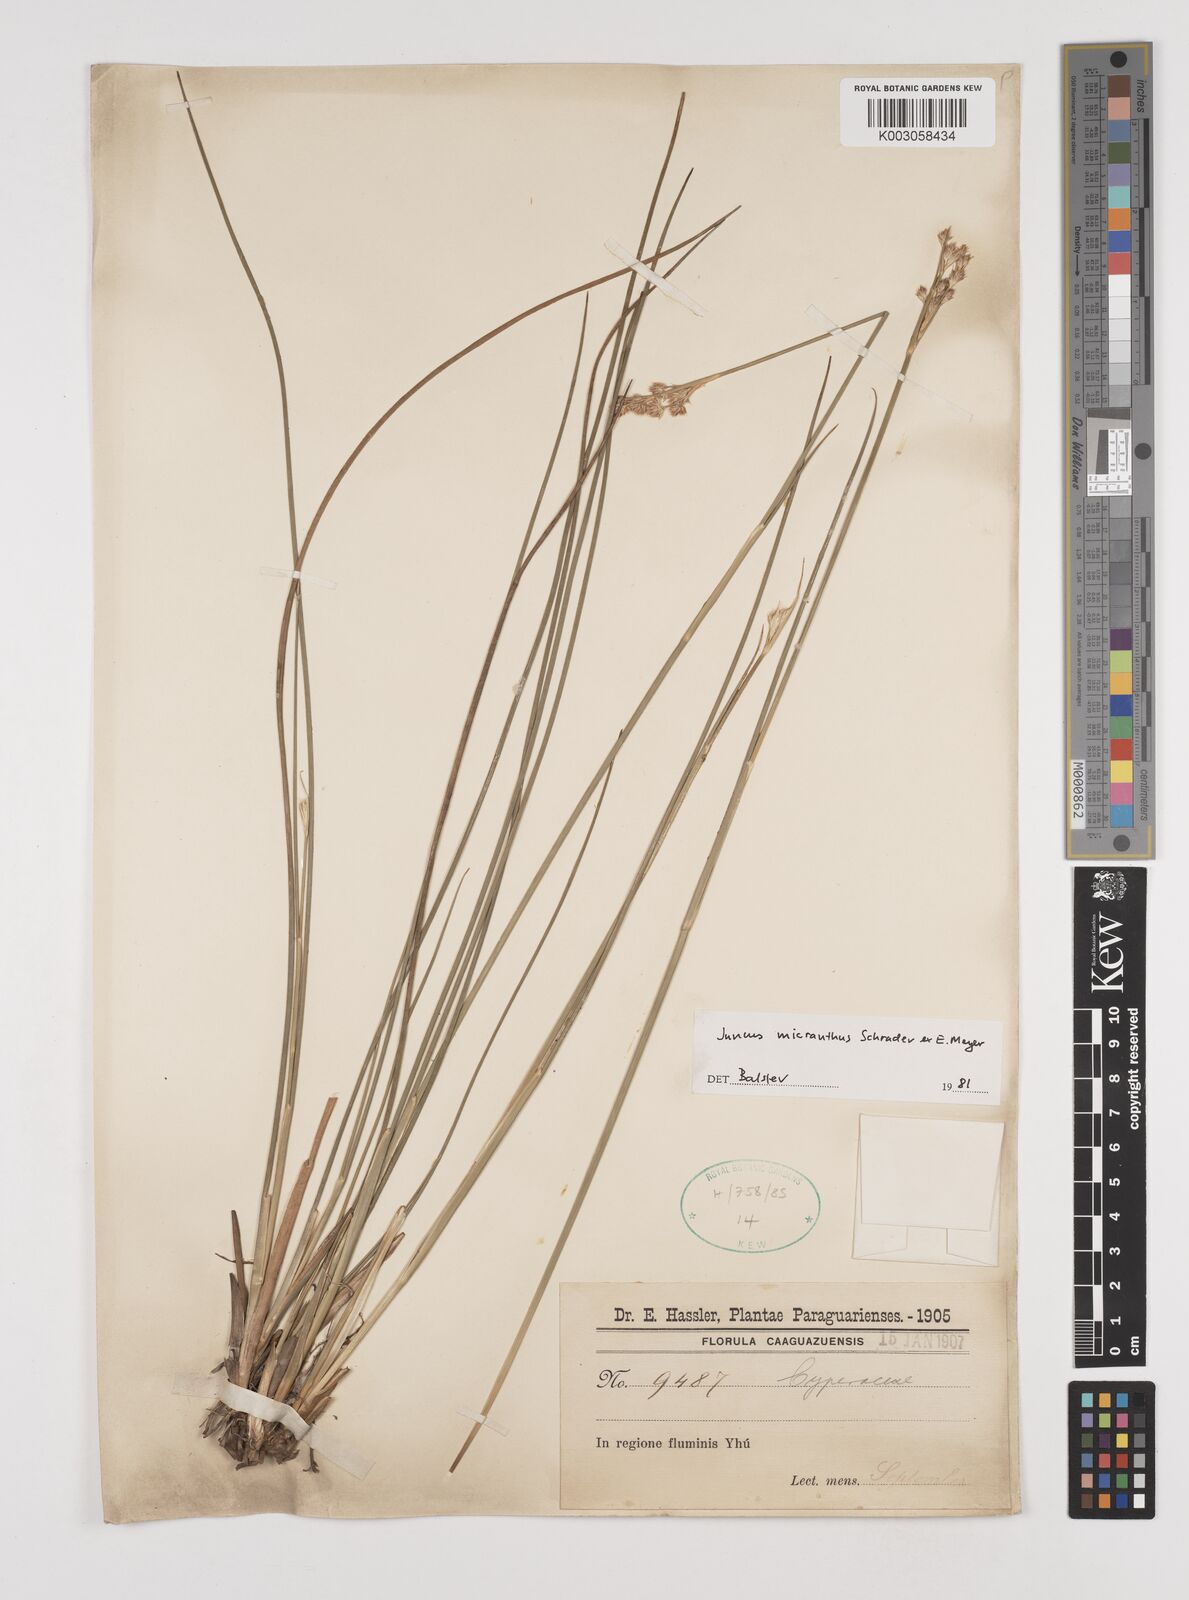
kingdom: Plantae
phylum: Tracheophyta
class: Liliopsida
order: Poales
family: Juncaceae
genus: Juncus
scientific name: Juncus micranthus
